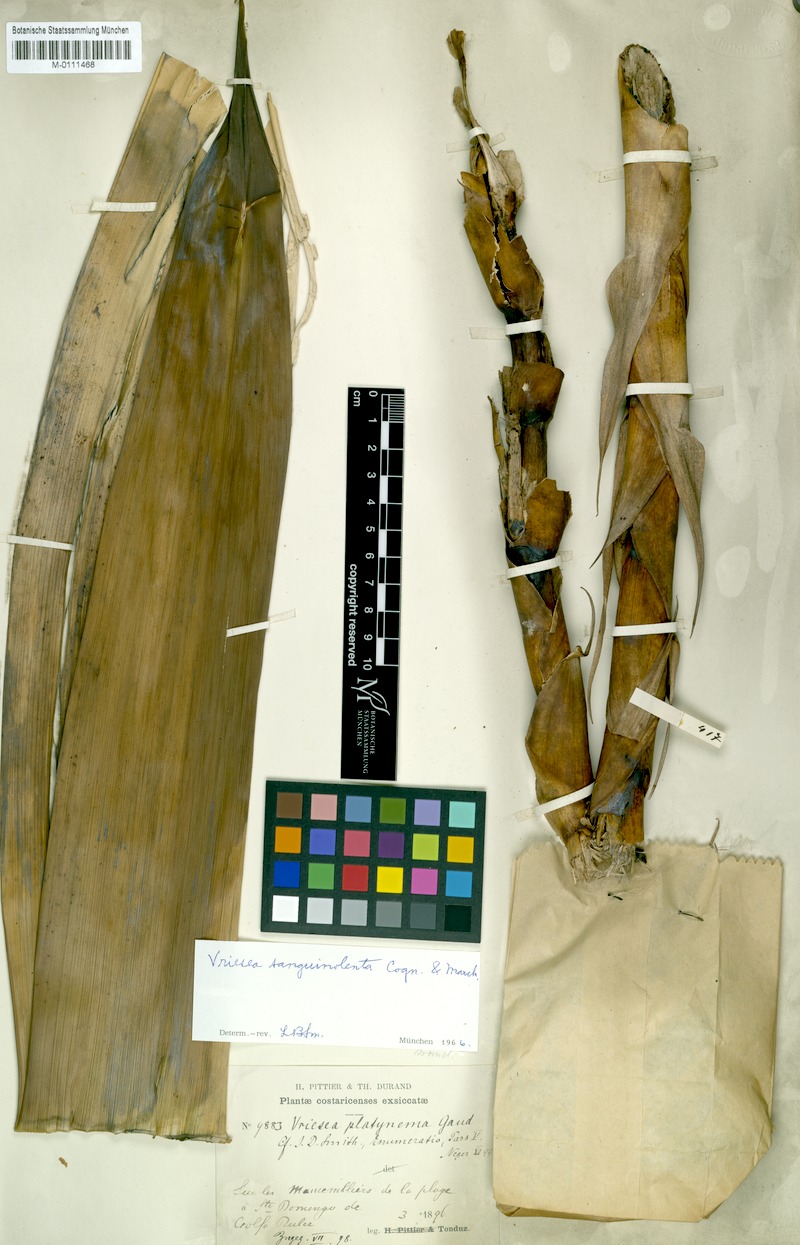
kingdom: Plantae
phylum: Tracheophyta
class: Liliopsida
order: Poales
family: Bromeliaceae
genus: Werauhia
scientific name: Werauhia sanguinolenta
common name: Bromeliad
